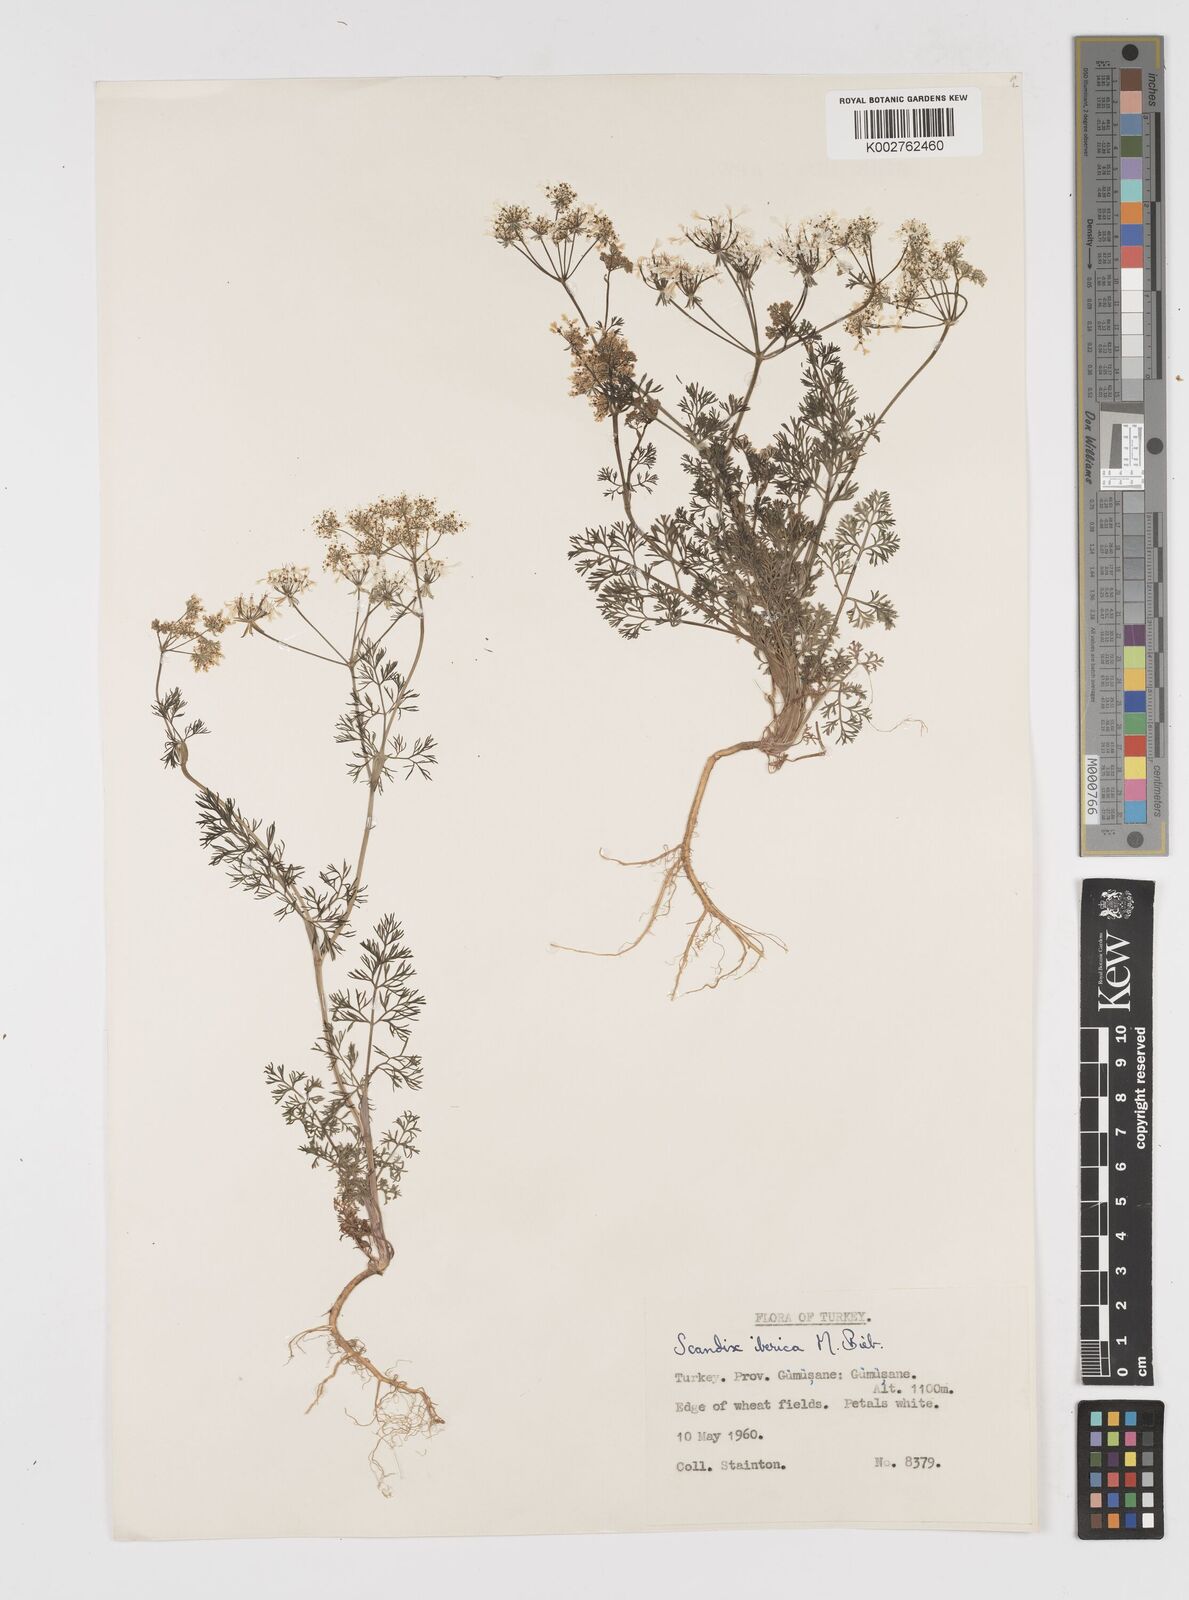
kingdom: Plantae
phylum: Tracheophyta
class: Magnoliopsida
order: Apiales
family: Apiaceae
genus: Scandix
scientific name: Scandix iberica
